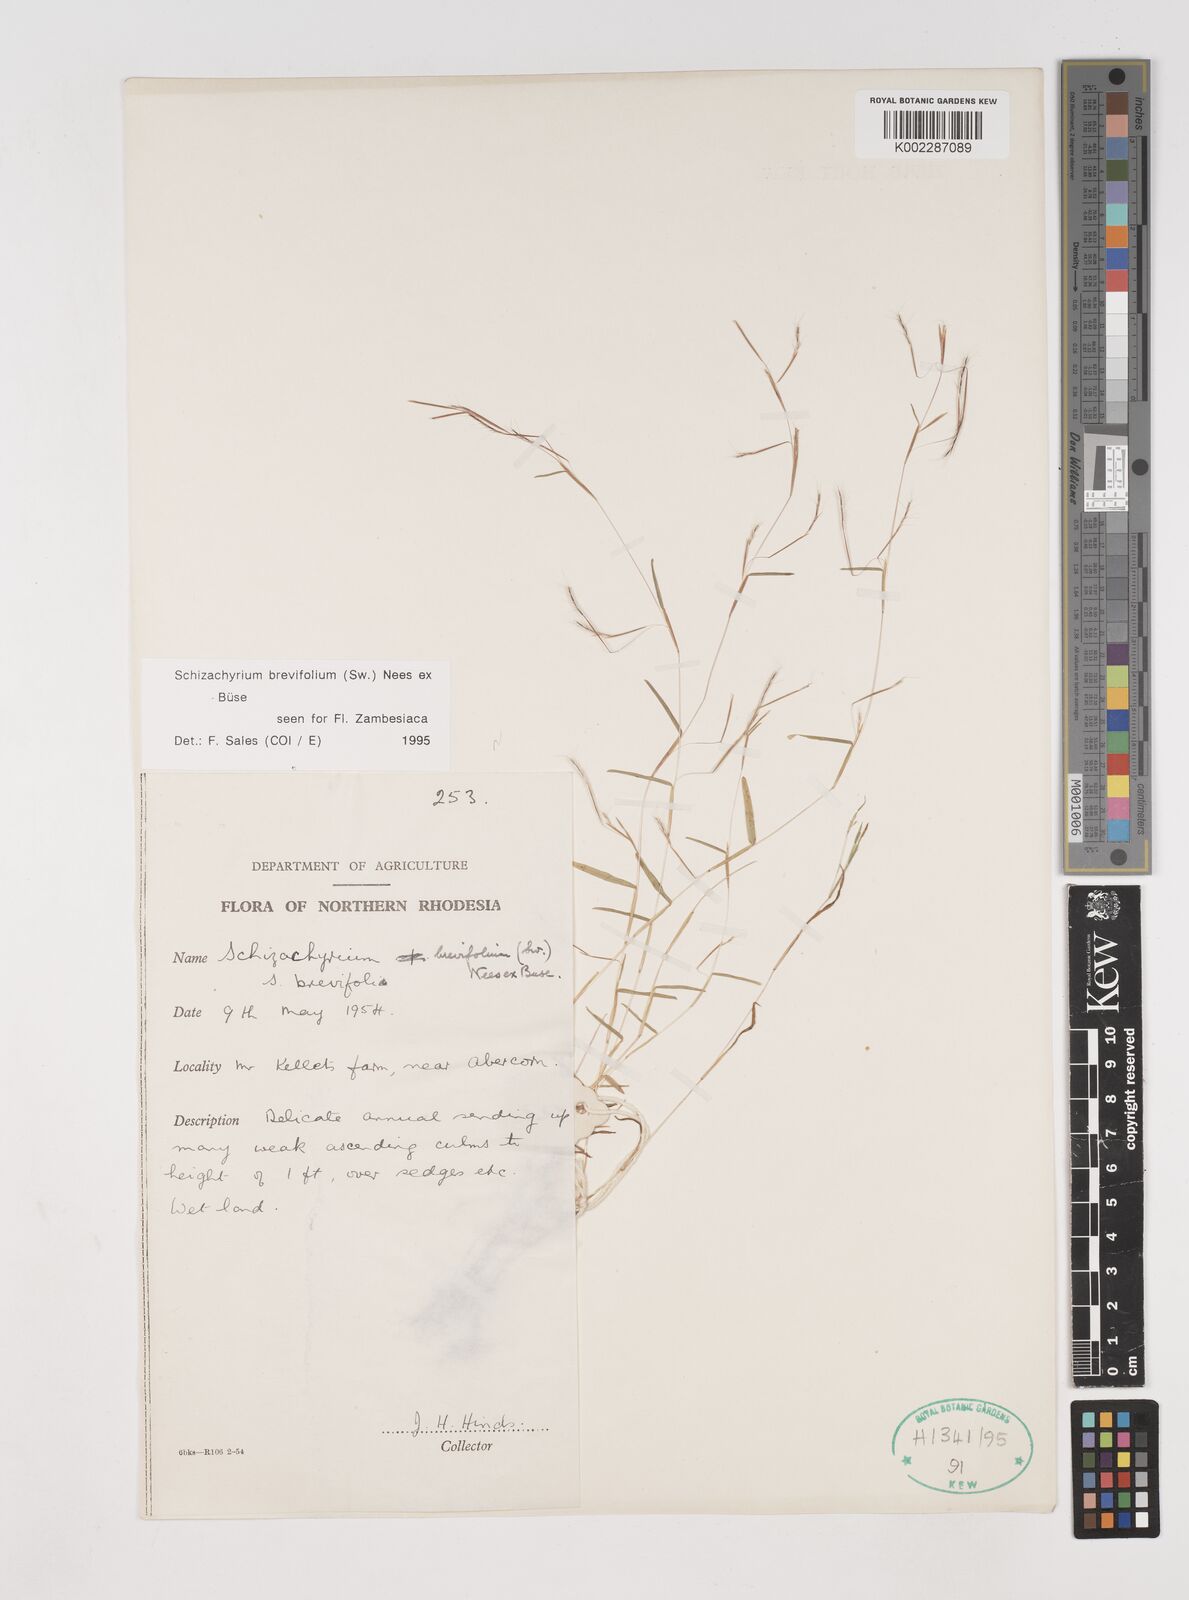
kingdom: Plantae
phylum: Tracheophyta
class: Liliopsida
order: Poales
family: Poaceae
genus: Schizachyrium
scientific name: Schizachyrium brevifolium
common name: Serillo dulce
